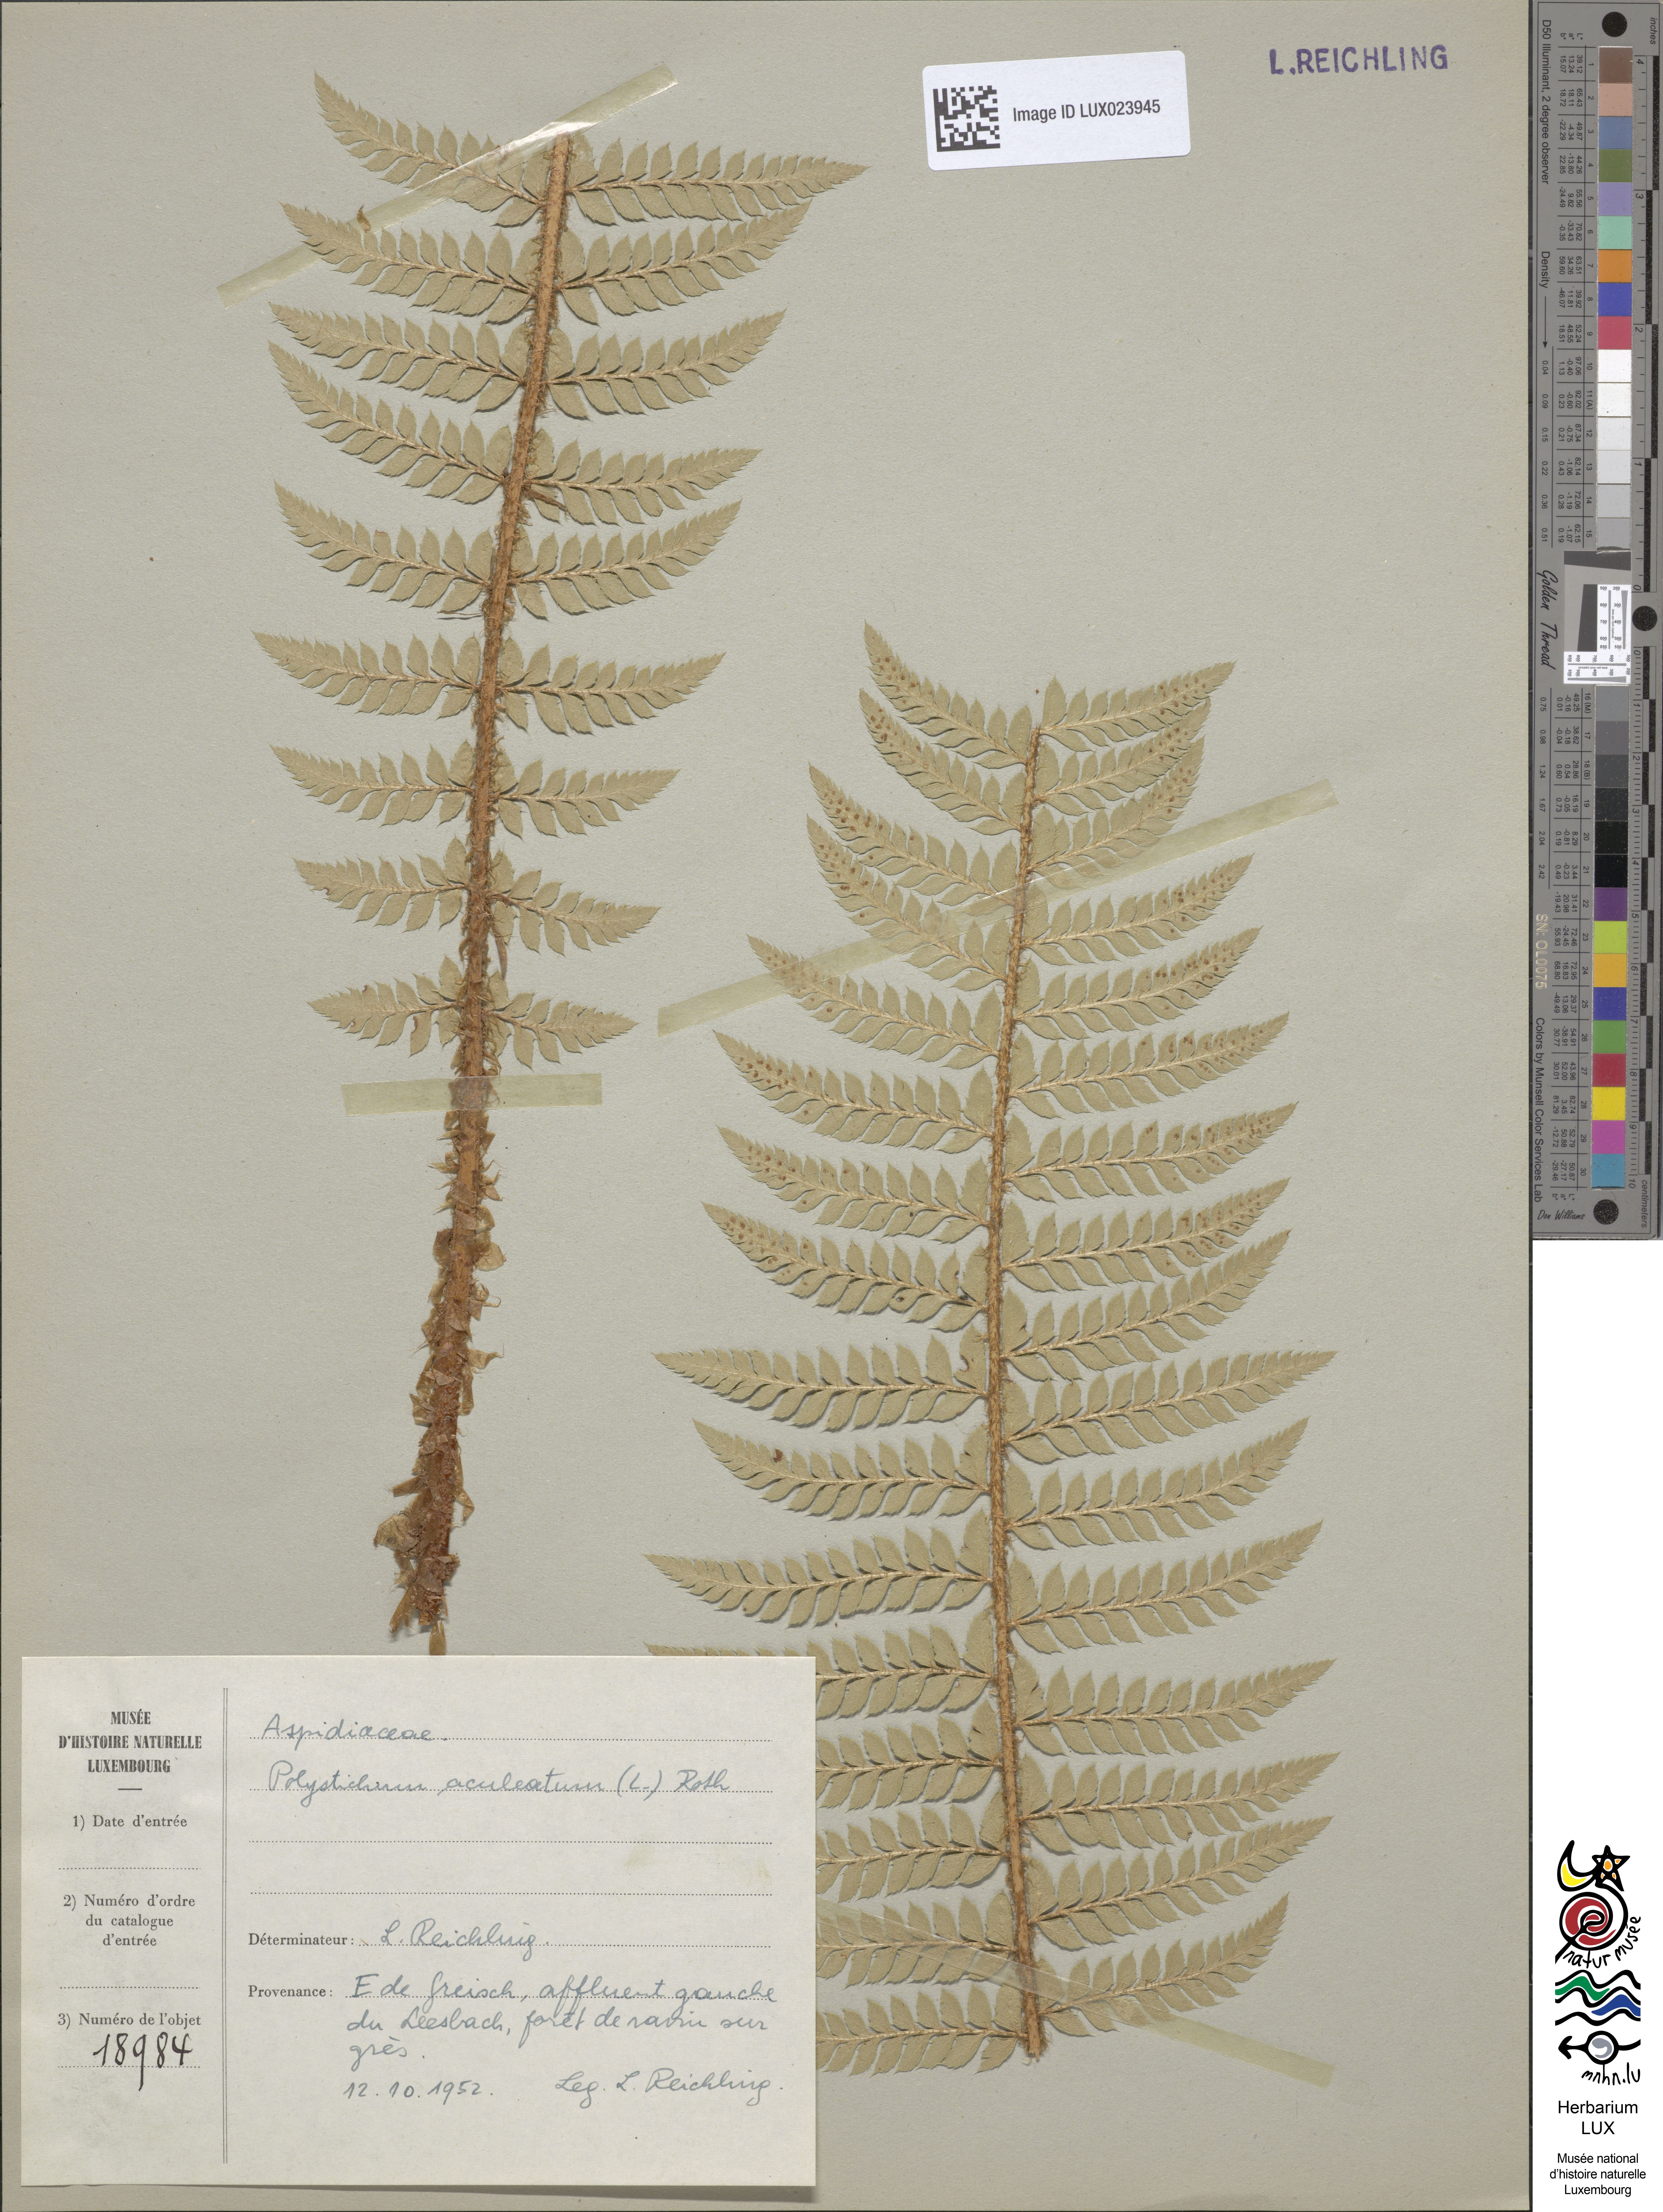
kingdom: Plantae
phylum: Tracheophyta
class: Polypodiopsida
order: Polypodiales
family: Dryopteridaceae
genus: Polystichum
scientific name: Polystichum aculeatum
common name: Hard shield-fern
